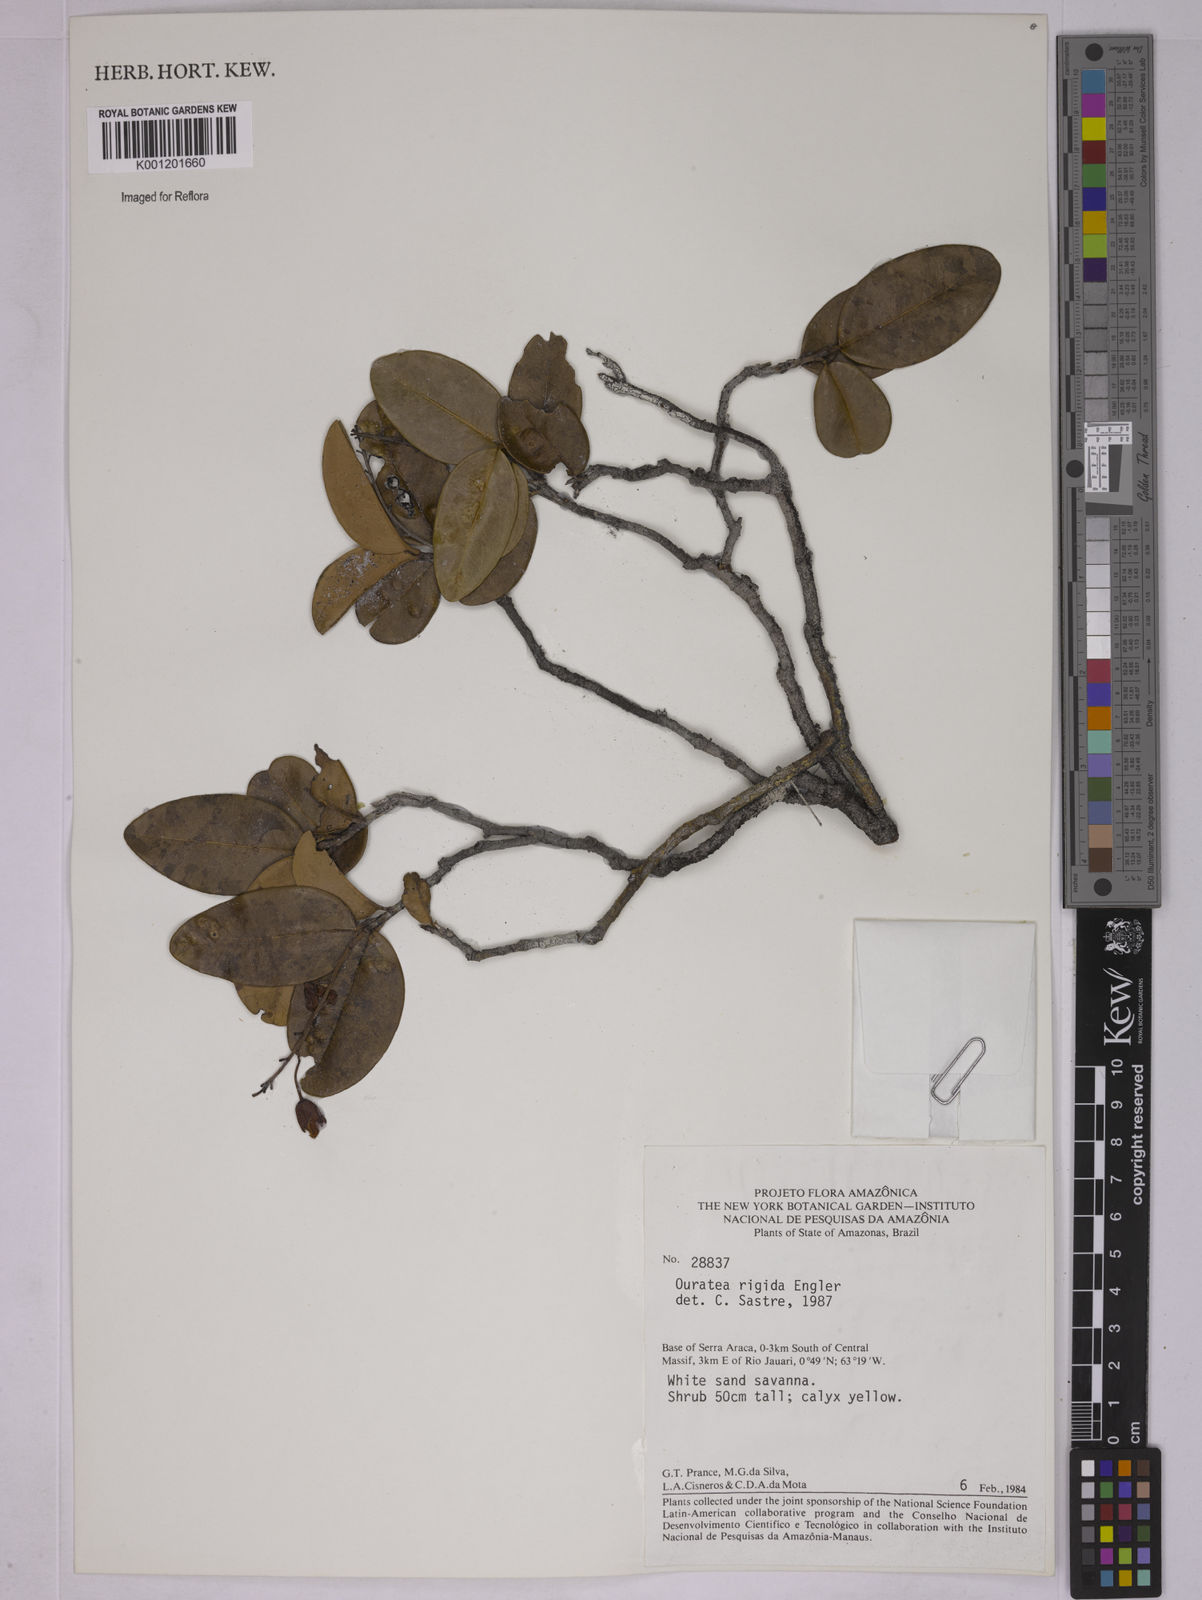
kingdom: Plantae
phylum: Tracheophyta
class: Magnoliopsida
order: Malpighiales
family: Ochnaceae
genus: Ouratea
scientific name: Ouratea rigida
